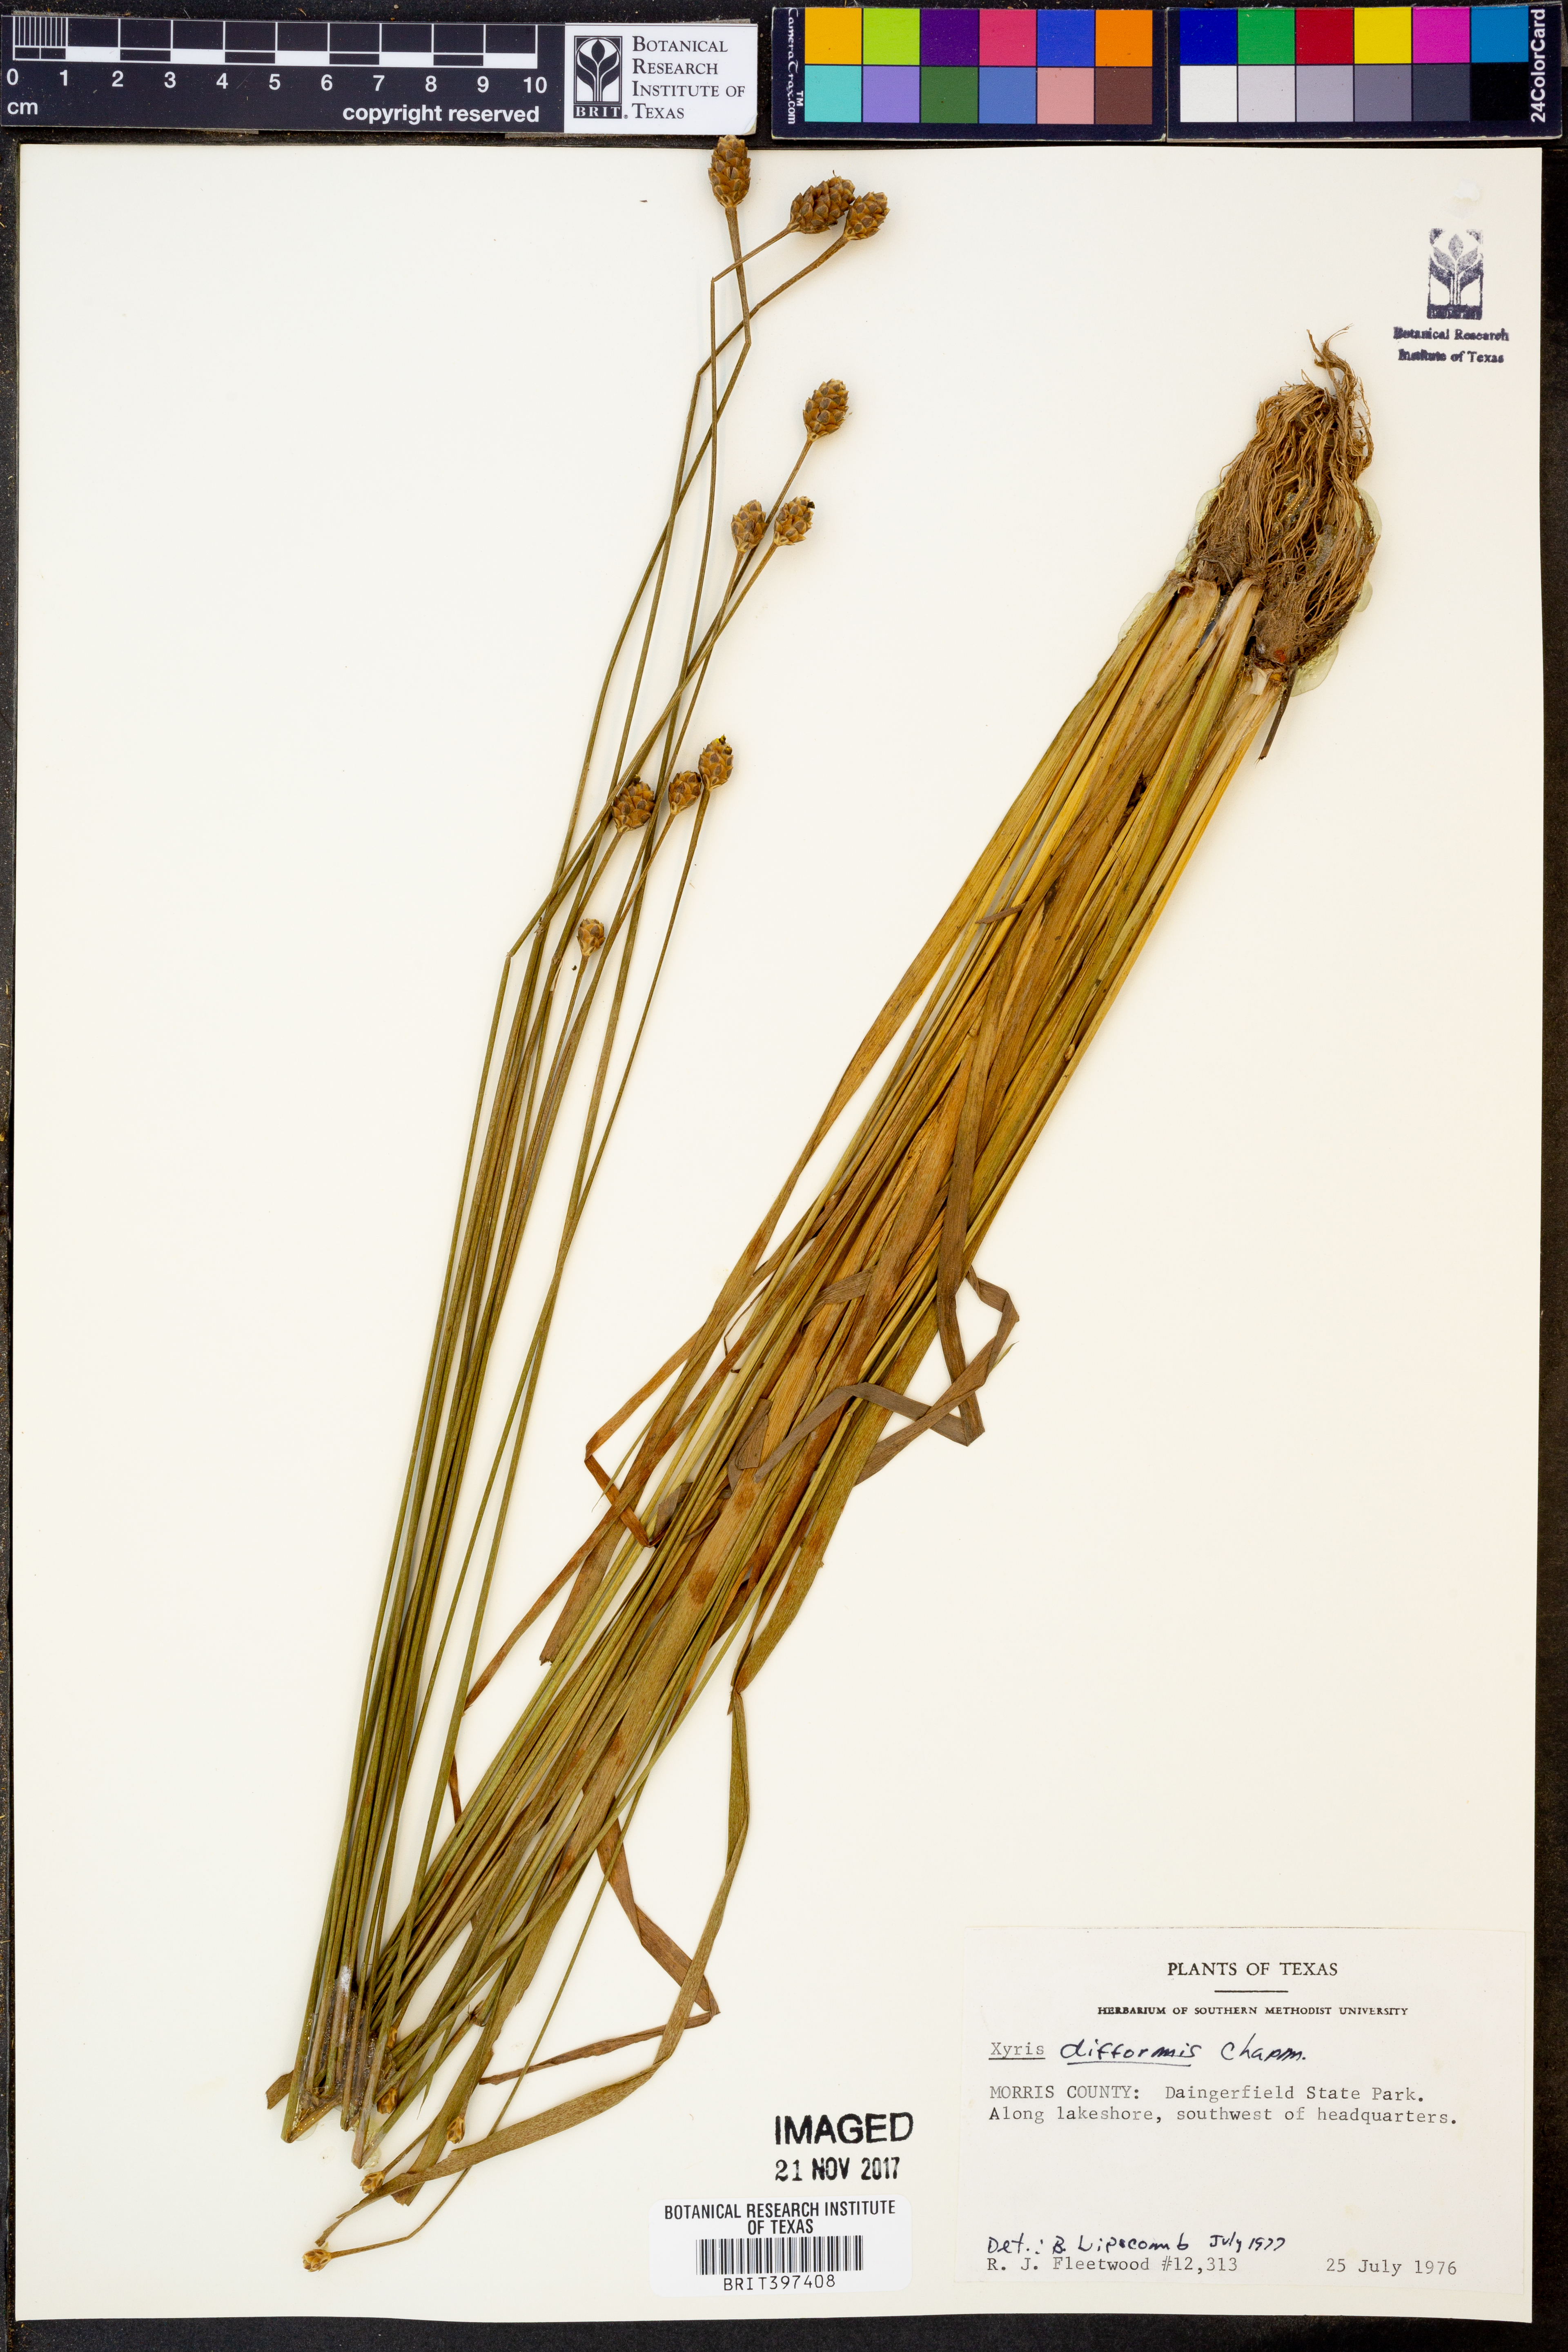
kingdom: Plantae
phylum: Tracheophyta
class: Liliopsida
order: Poales
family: Xyridaceae
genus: Xyris
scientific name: Xyris difformis
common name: Bog yellow-eyed-grass
